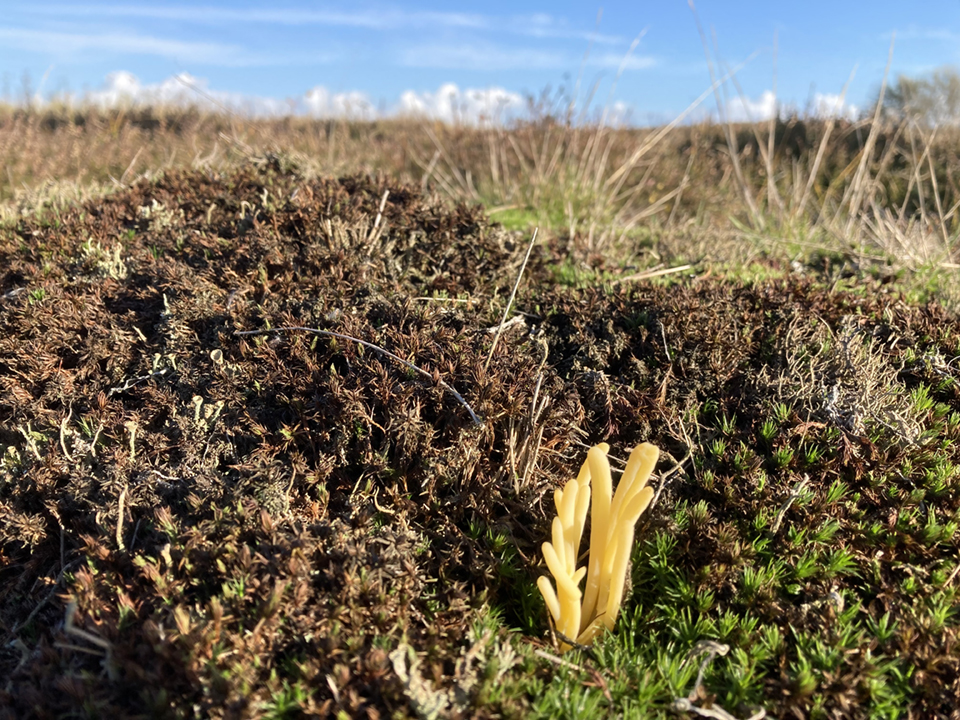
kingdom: Fungi
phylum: Basidiomycota
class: Agaricomycetes
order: Agaricales
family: Clavariaceae
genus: Clavaria
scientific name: Clavaria argillacea
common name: lerfarvet køllesvamp
